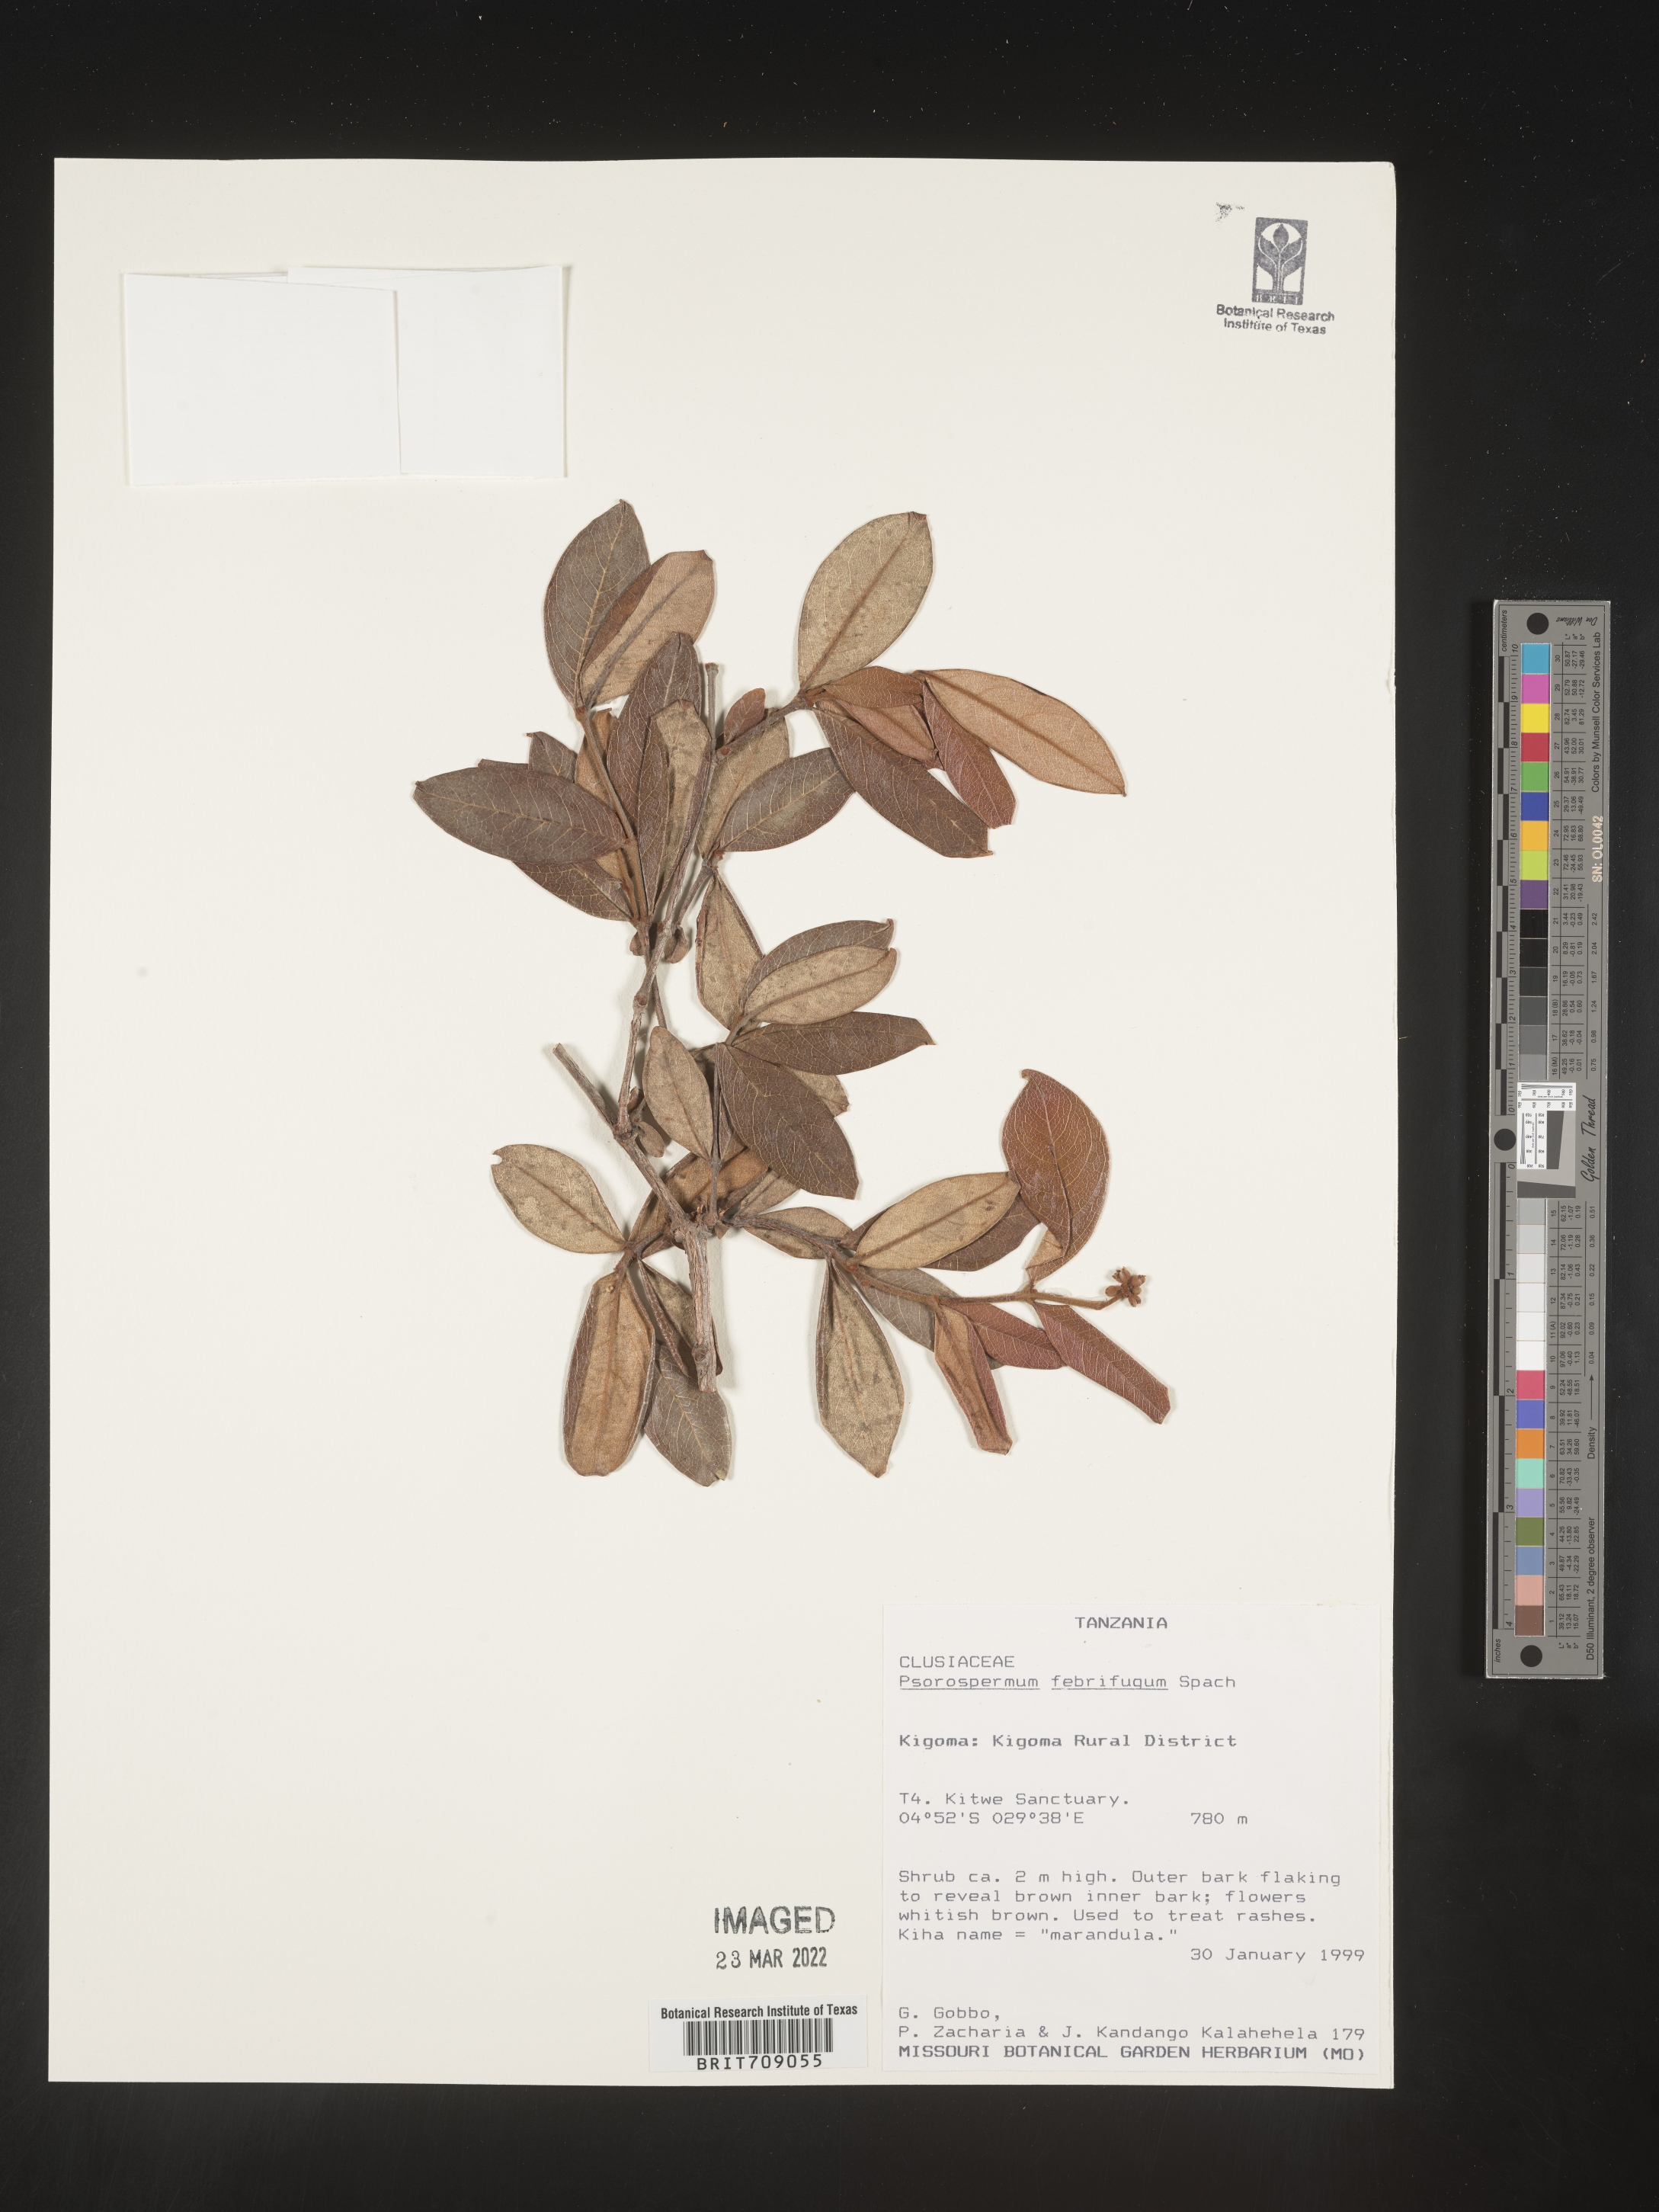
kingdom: Plantae
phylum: Tracheophyta
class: Magnoliopsida
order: Malpighiales
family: Hypericaceae
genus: Psorospermum
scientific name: Psorospermum
